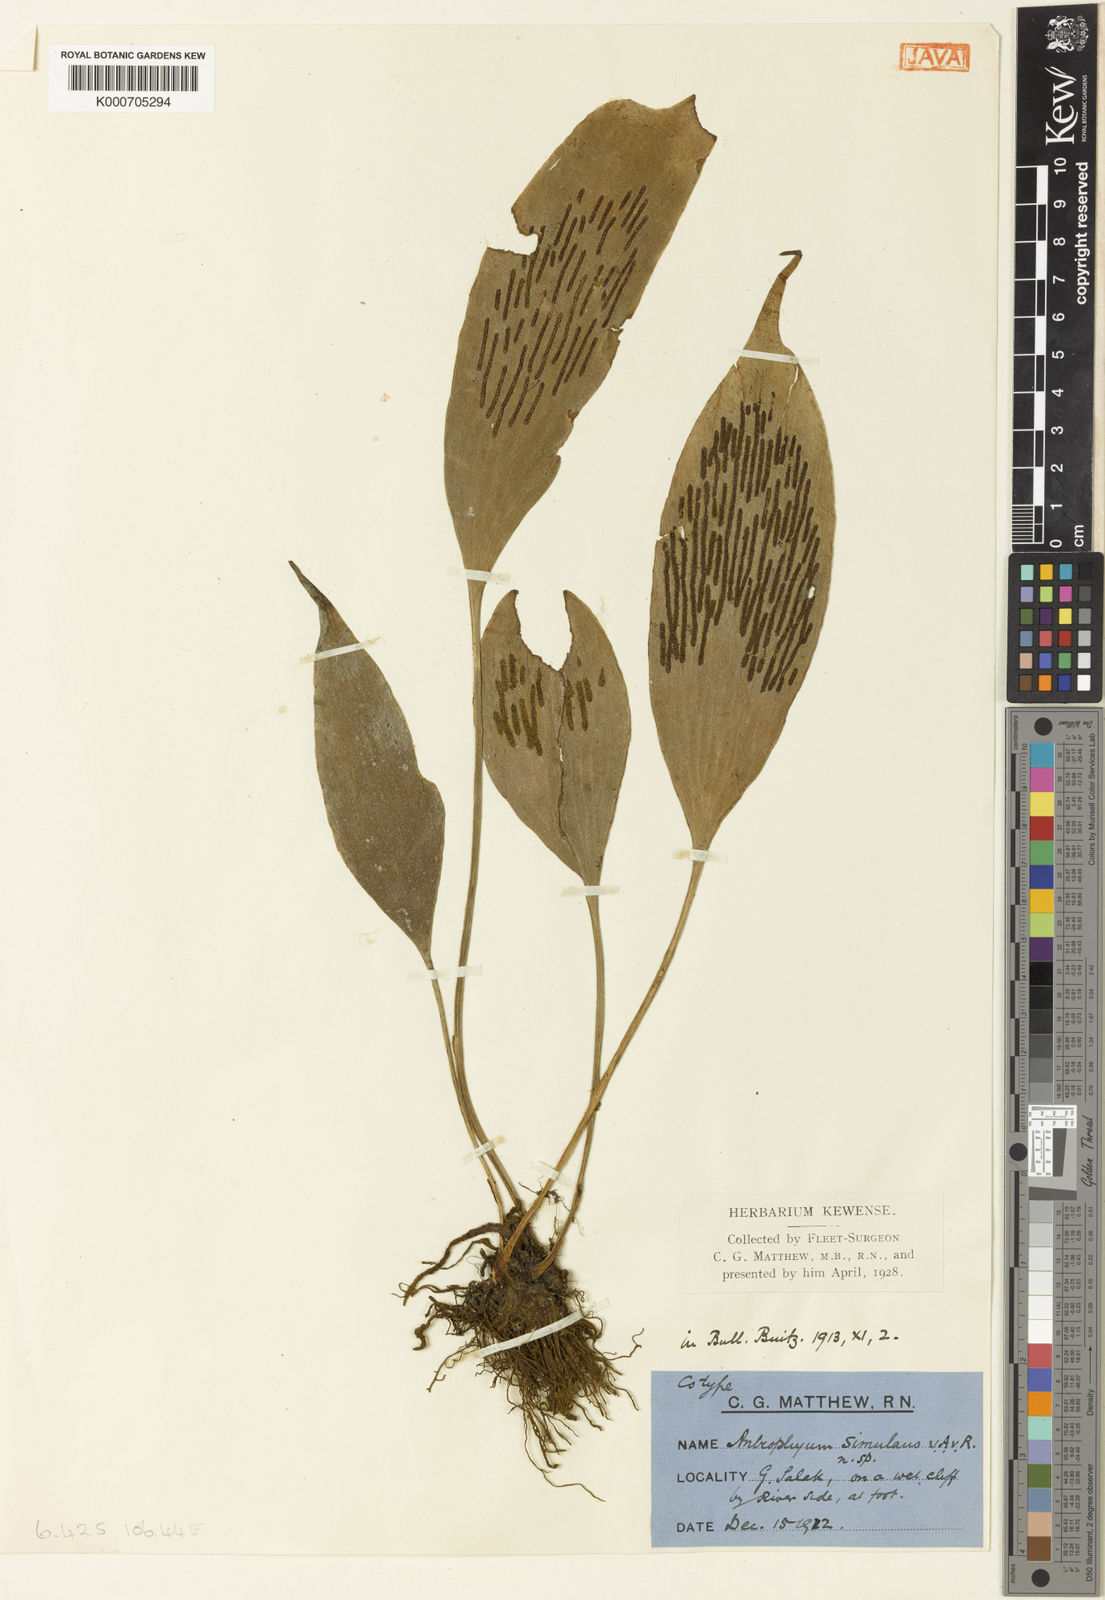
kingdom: Plantae
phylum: Tracheophyta
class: Polypodiopsida
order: Polypodiales
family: Pteridaceae
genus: Antrophyum
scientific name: Antrophyum simulans
